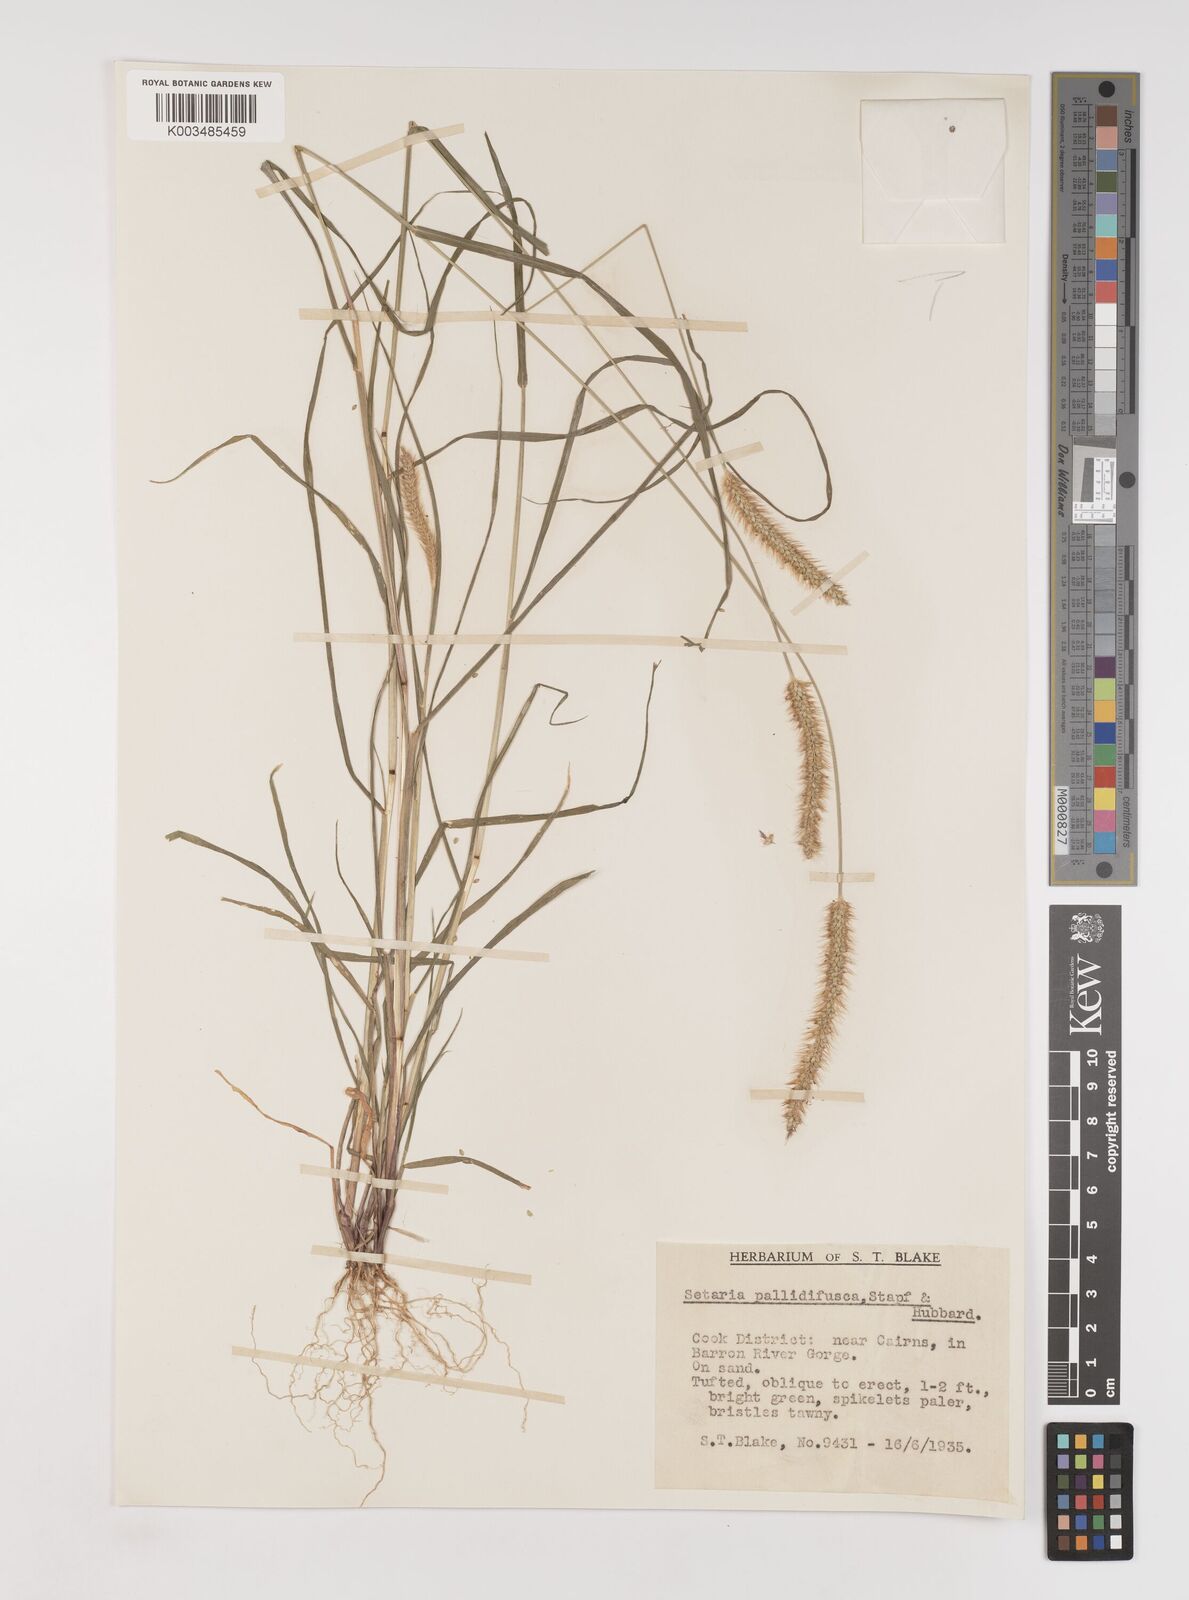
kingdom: Plantae
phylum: Tracheophyta
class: Liliopsida
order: Poales
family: Poaceae
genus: Setaria
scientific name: Setaria pumila
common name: Yellow bristle-grass
